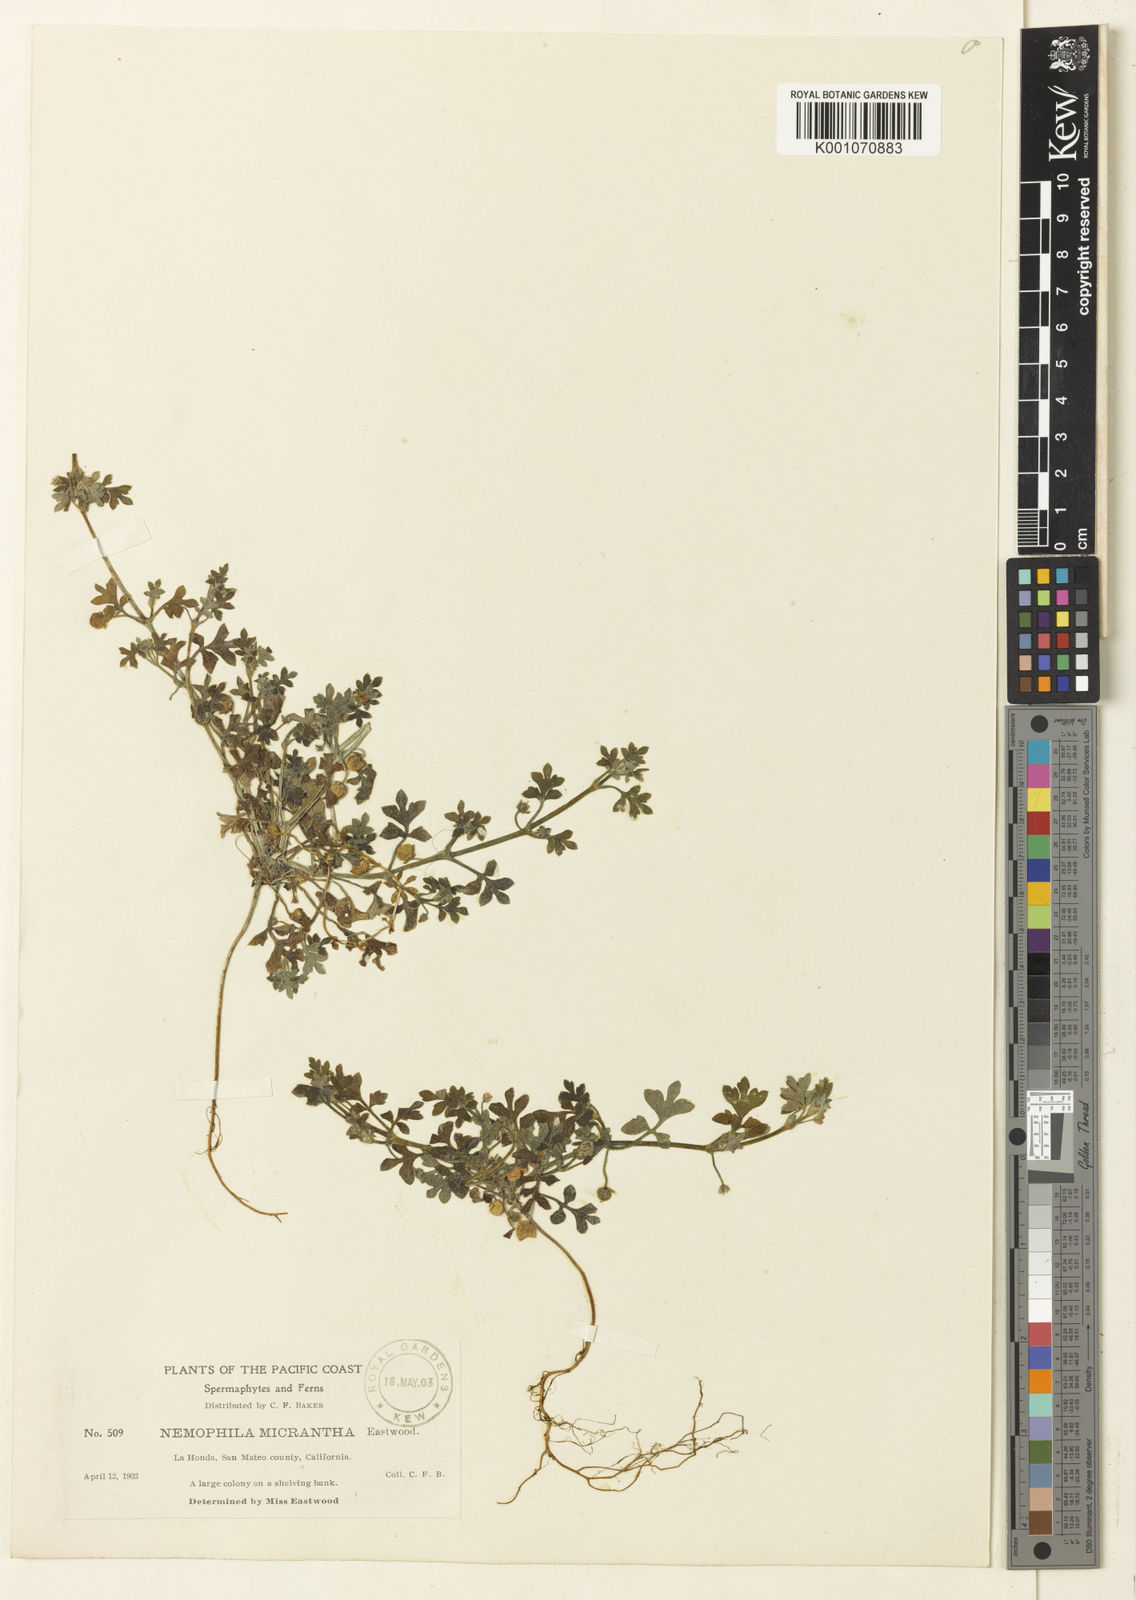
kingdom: Plantae
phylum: Tracheophyta
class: Magnoliopsida
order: Boraginales
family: Hydrophyllaceae
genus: Nemophila
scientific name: Nemophila
